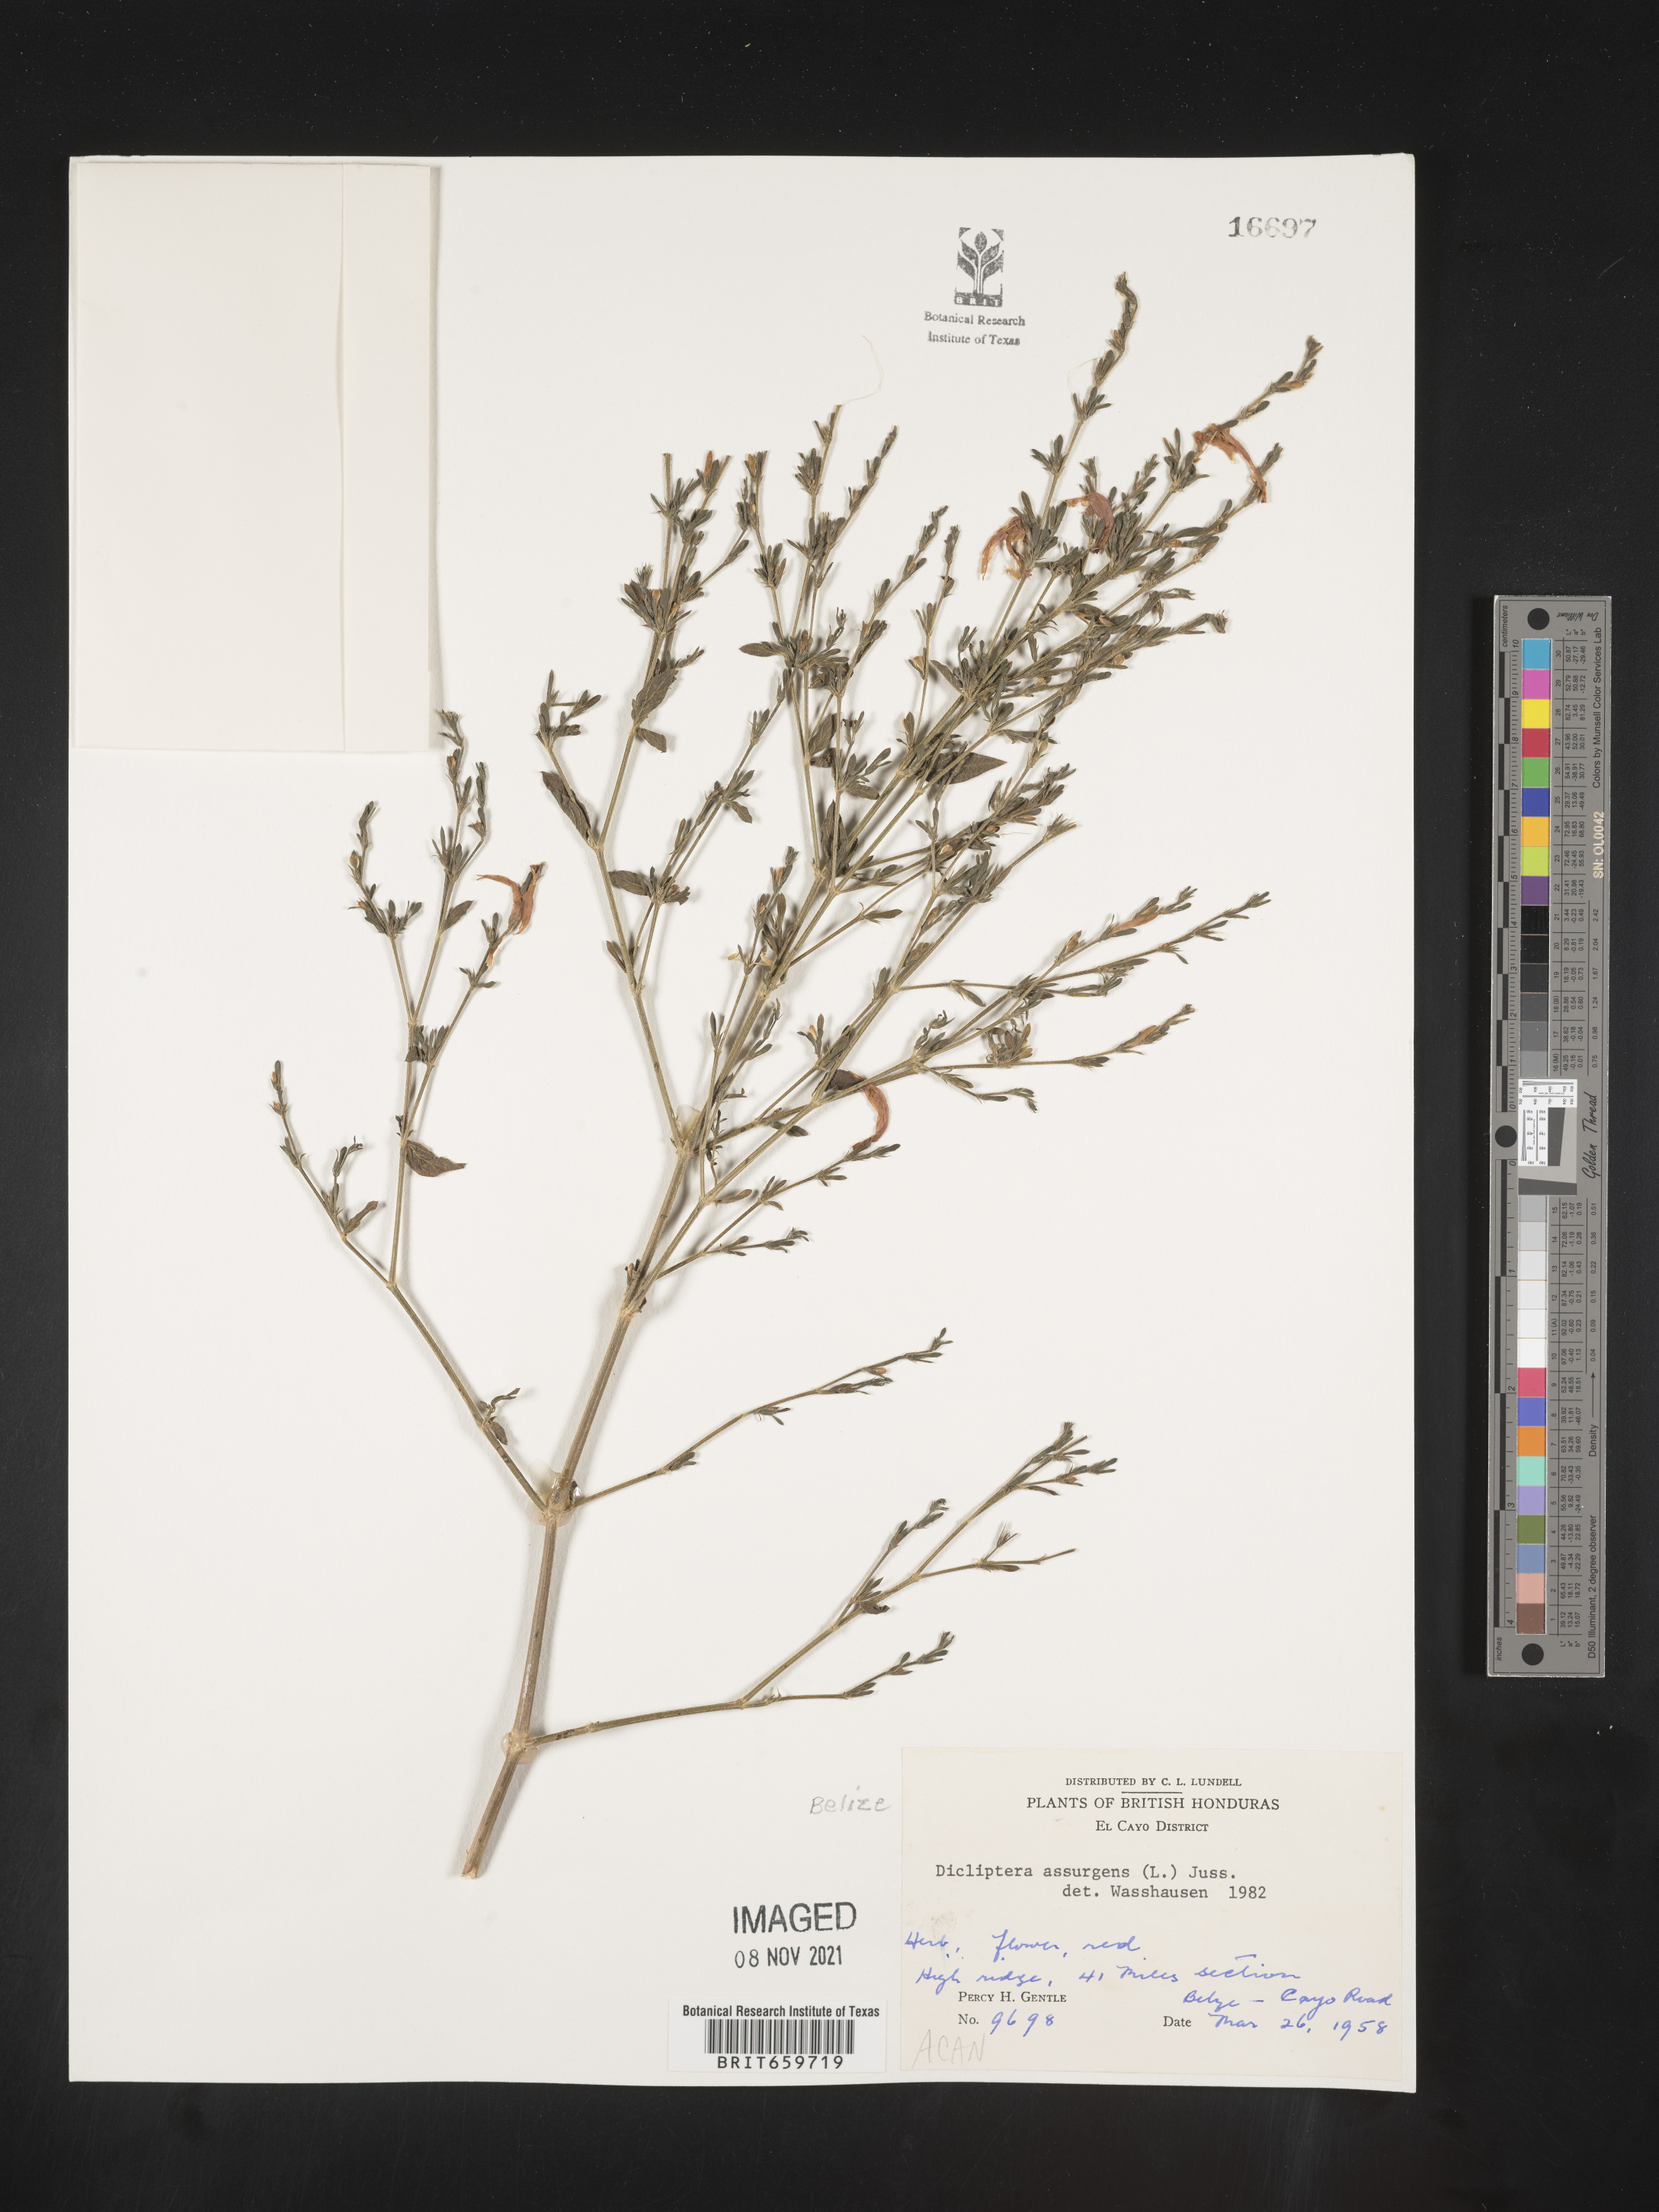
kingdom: Plantae
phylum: Tracheophyta
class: Magnoliopsida
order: Lamiales
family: Acanthaceae
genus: Dicliptera
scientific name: Dicliptera
